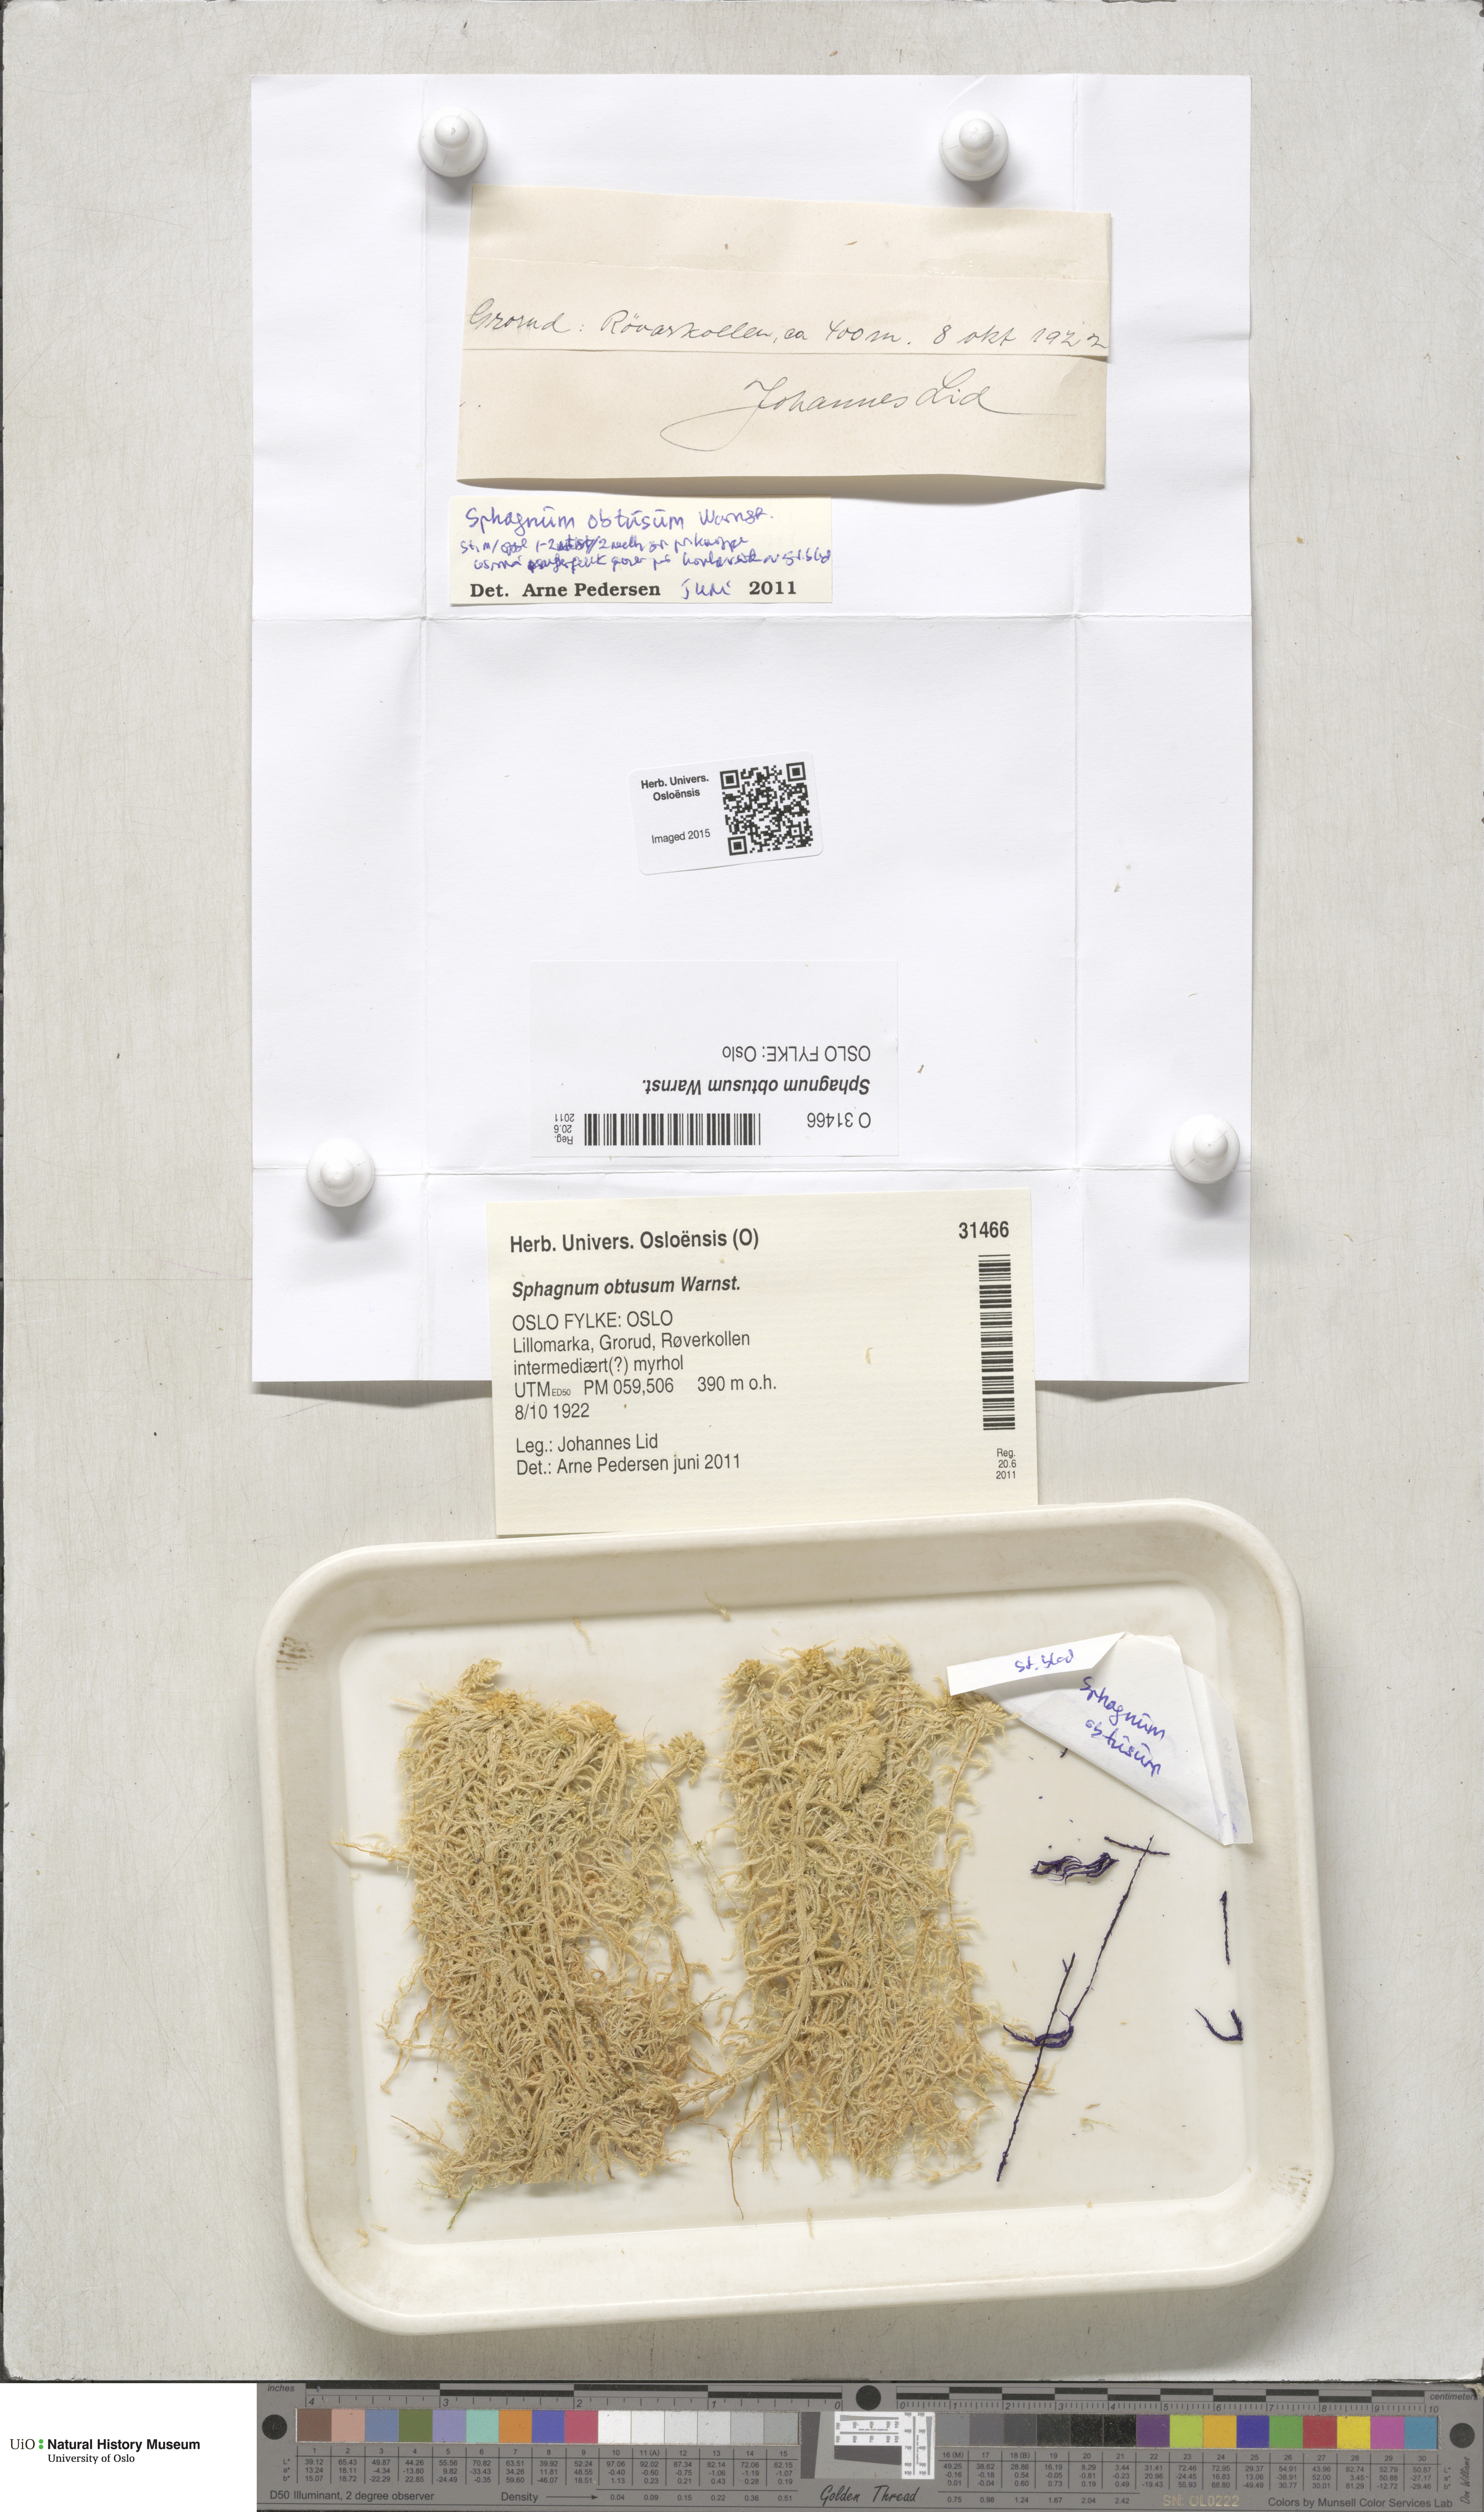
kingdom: Plantae
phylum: Bryophyta
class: Sphagnopsida
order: Sphagnales
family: Sphagnaceae
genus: Sphagnum
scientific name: Sphagnum obtusum
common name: Obtuse peat moss
